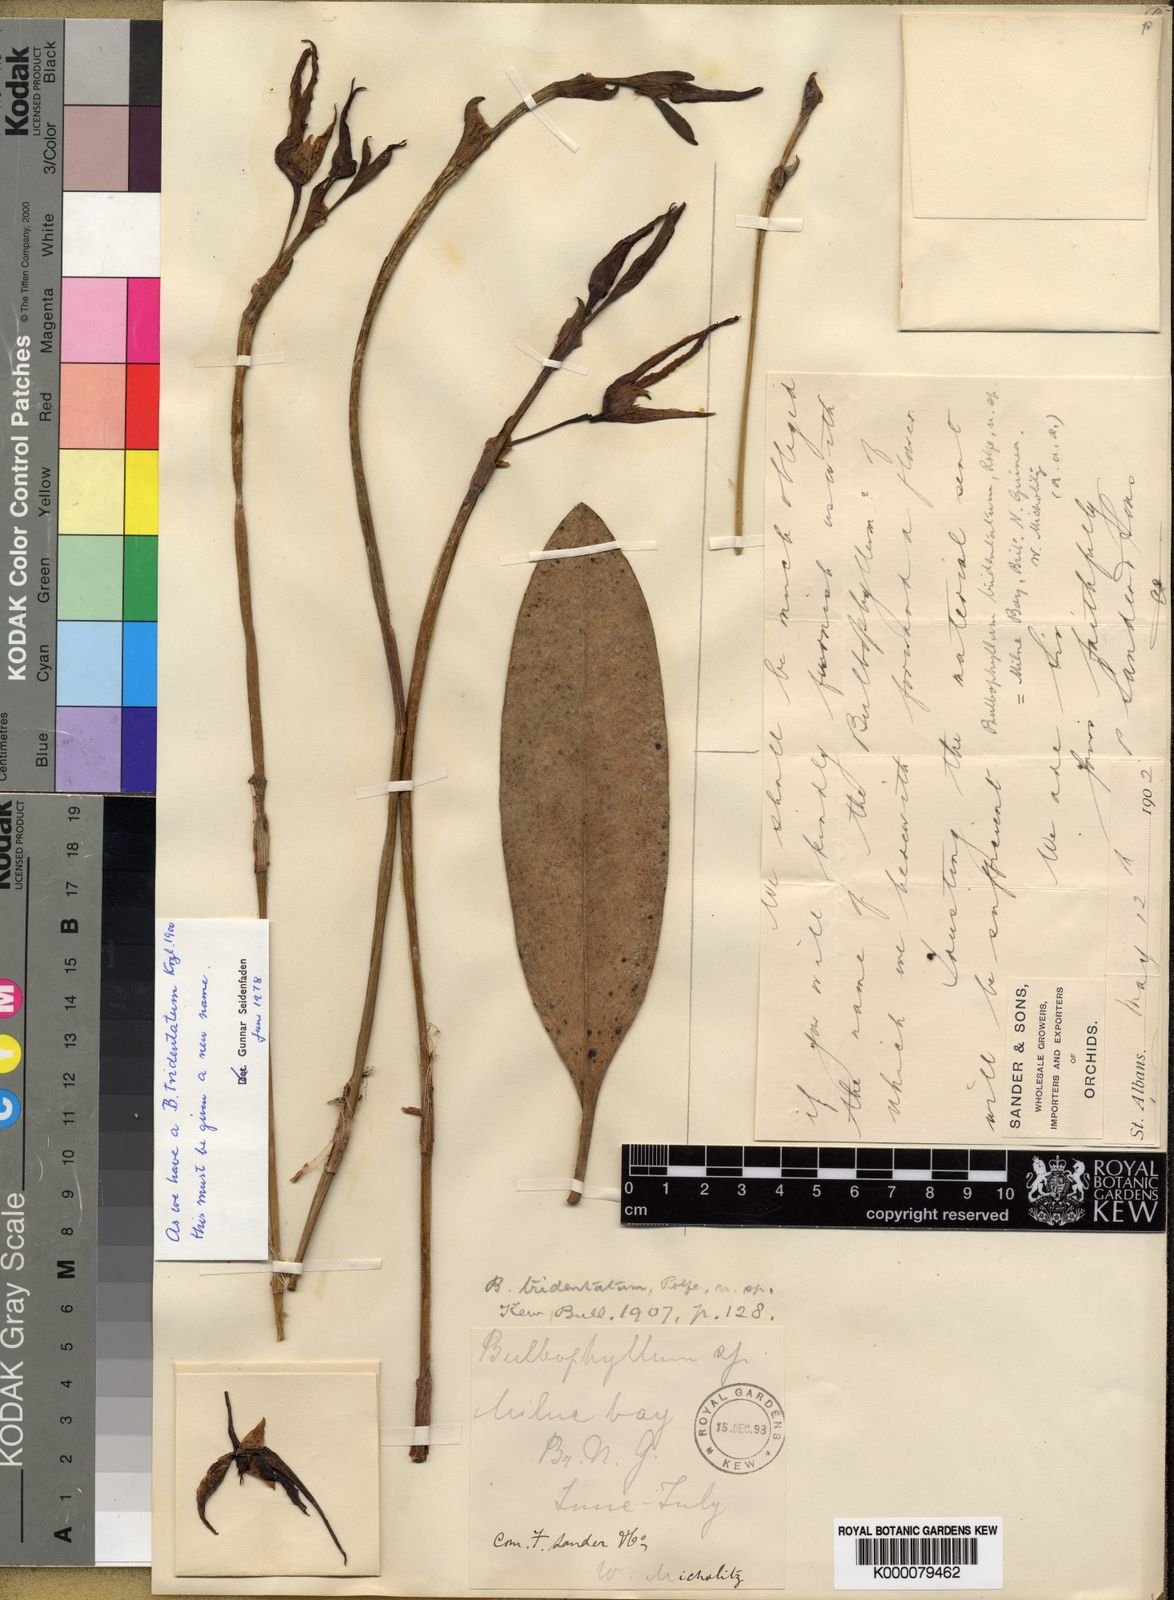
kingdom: Plantae
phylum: Tracheophyta
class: Liliopsida
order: Asparagales
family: Orchidaceae
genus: Bulbophyllum
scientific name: Bulbophyllum tristelidium
